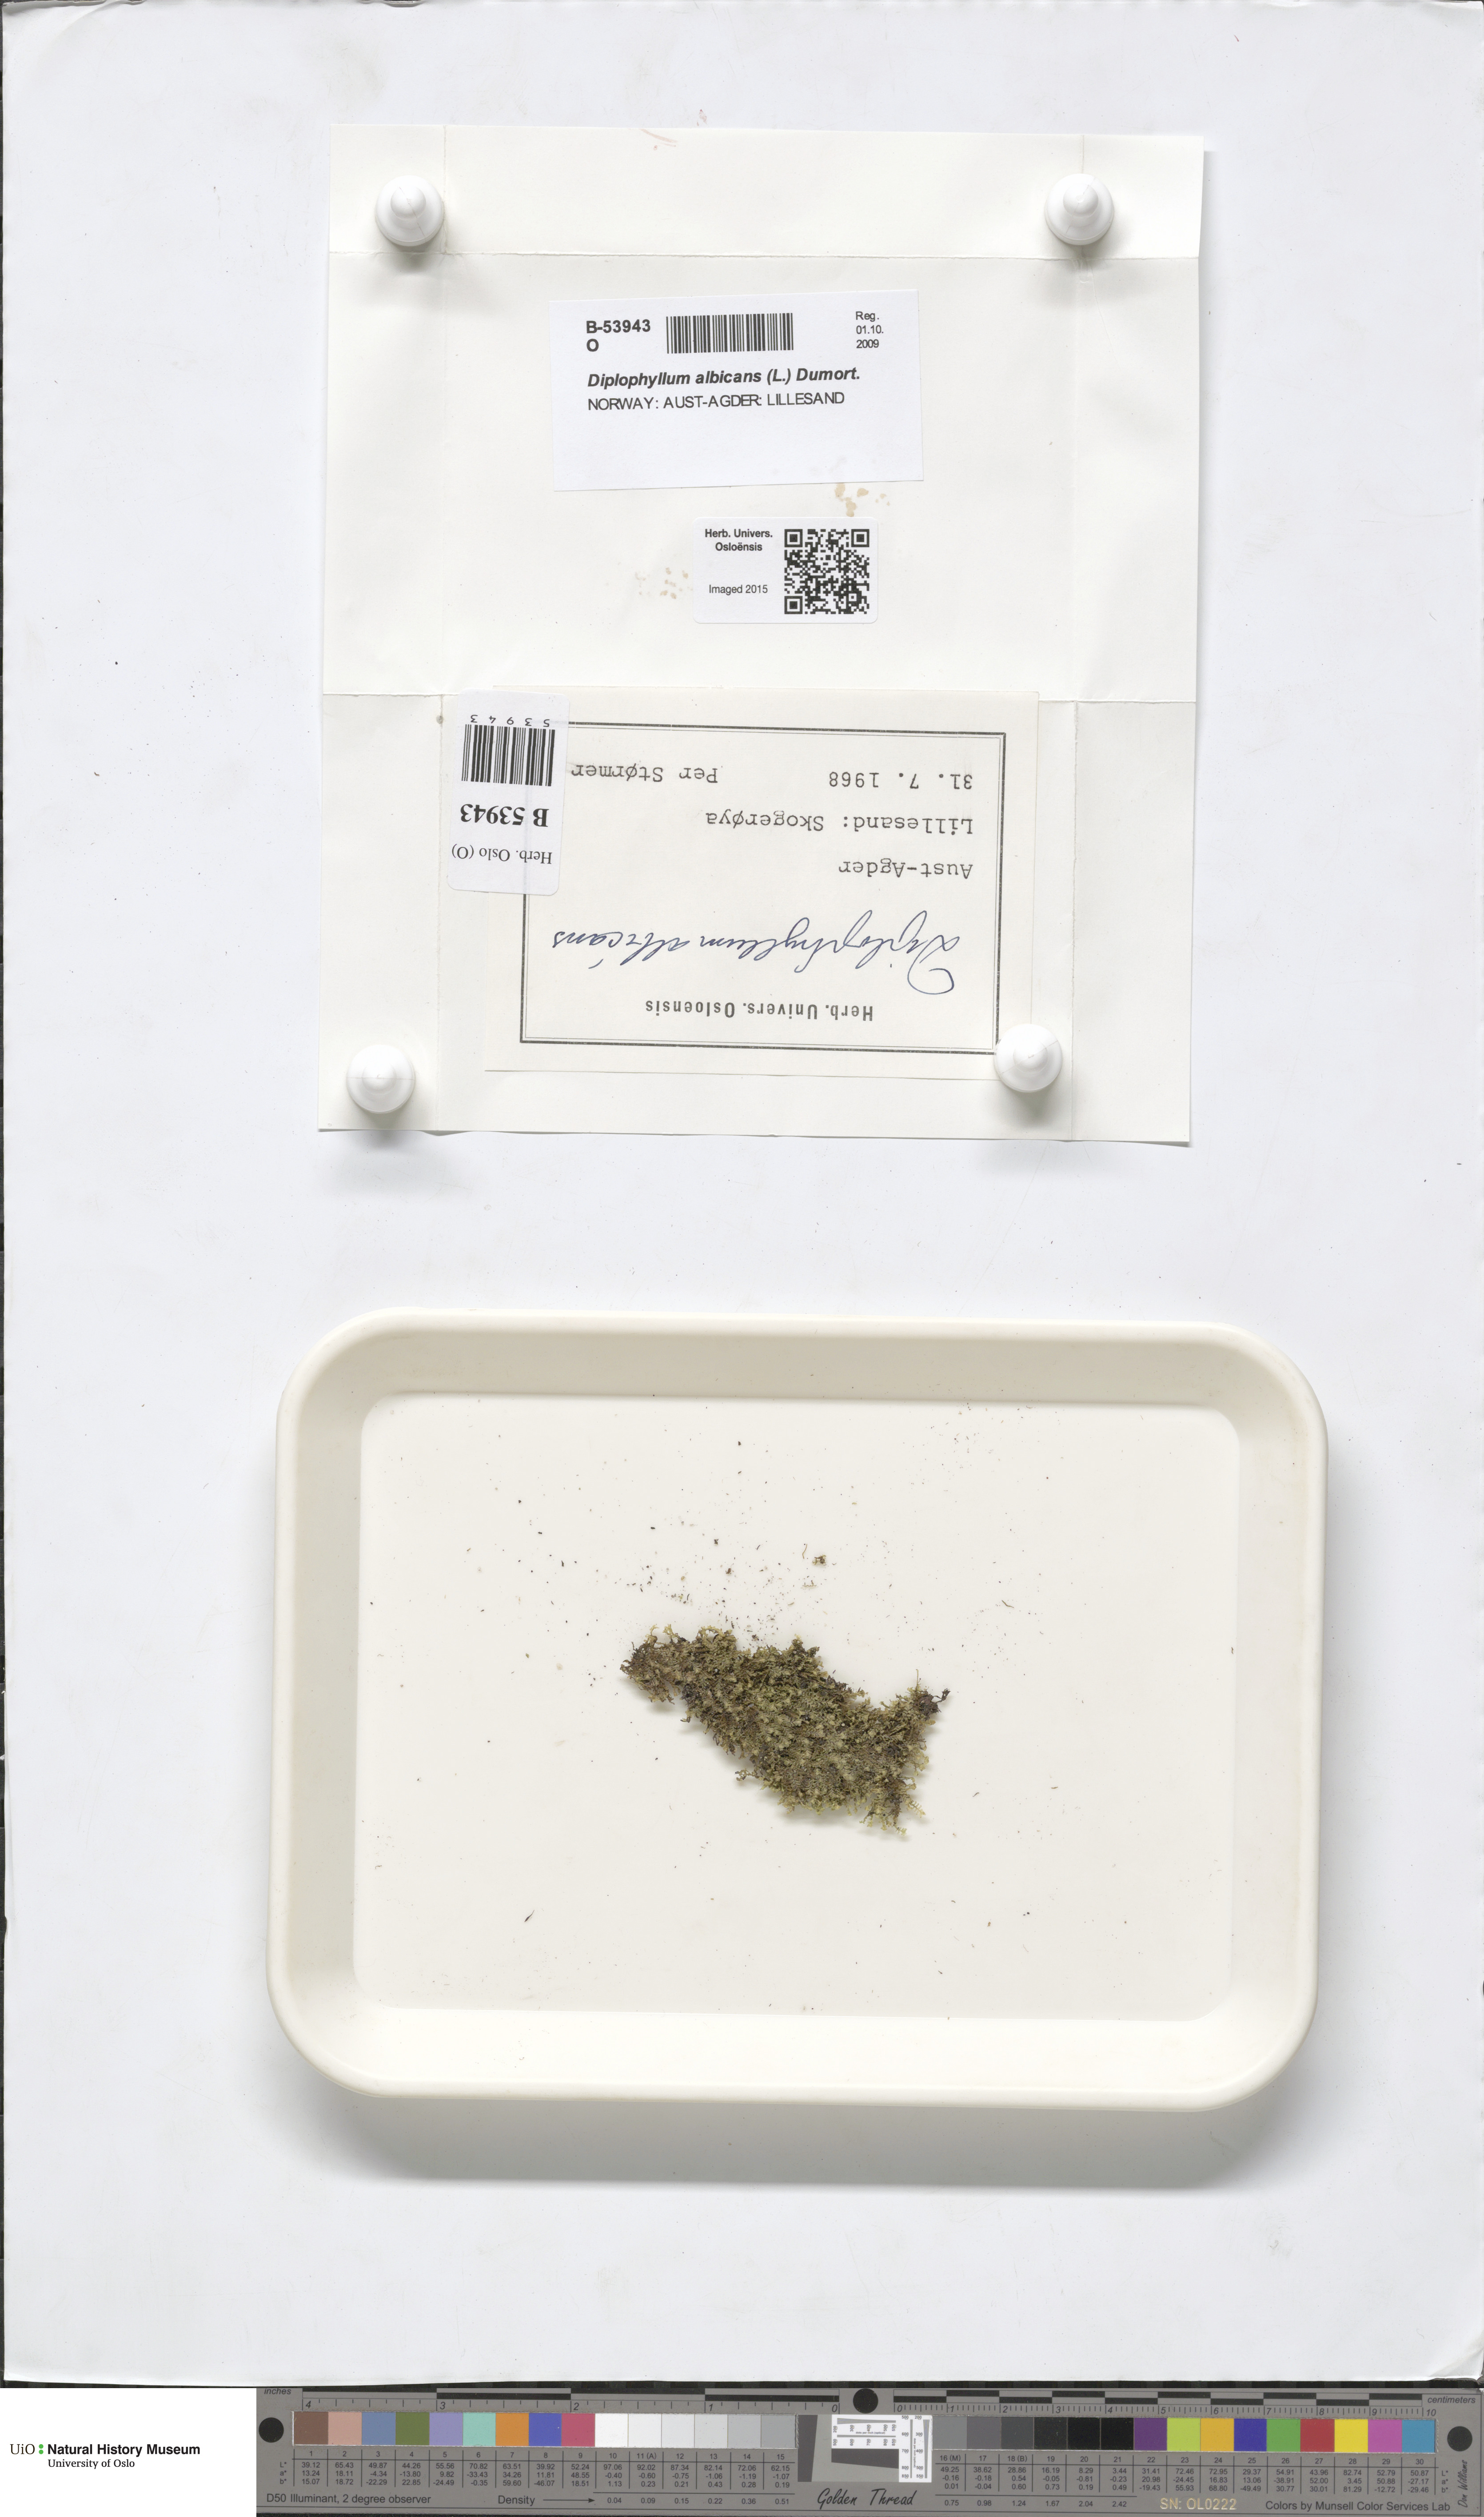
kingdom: Plantae
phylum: Marchantiophyta
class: Jungermanniopsida
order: Jungermanniales
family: Scapaniaceae
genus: Diplophyllum
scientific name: Diplophyllum albicans
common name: White earwort
